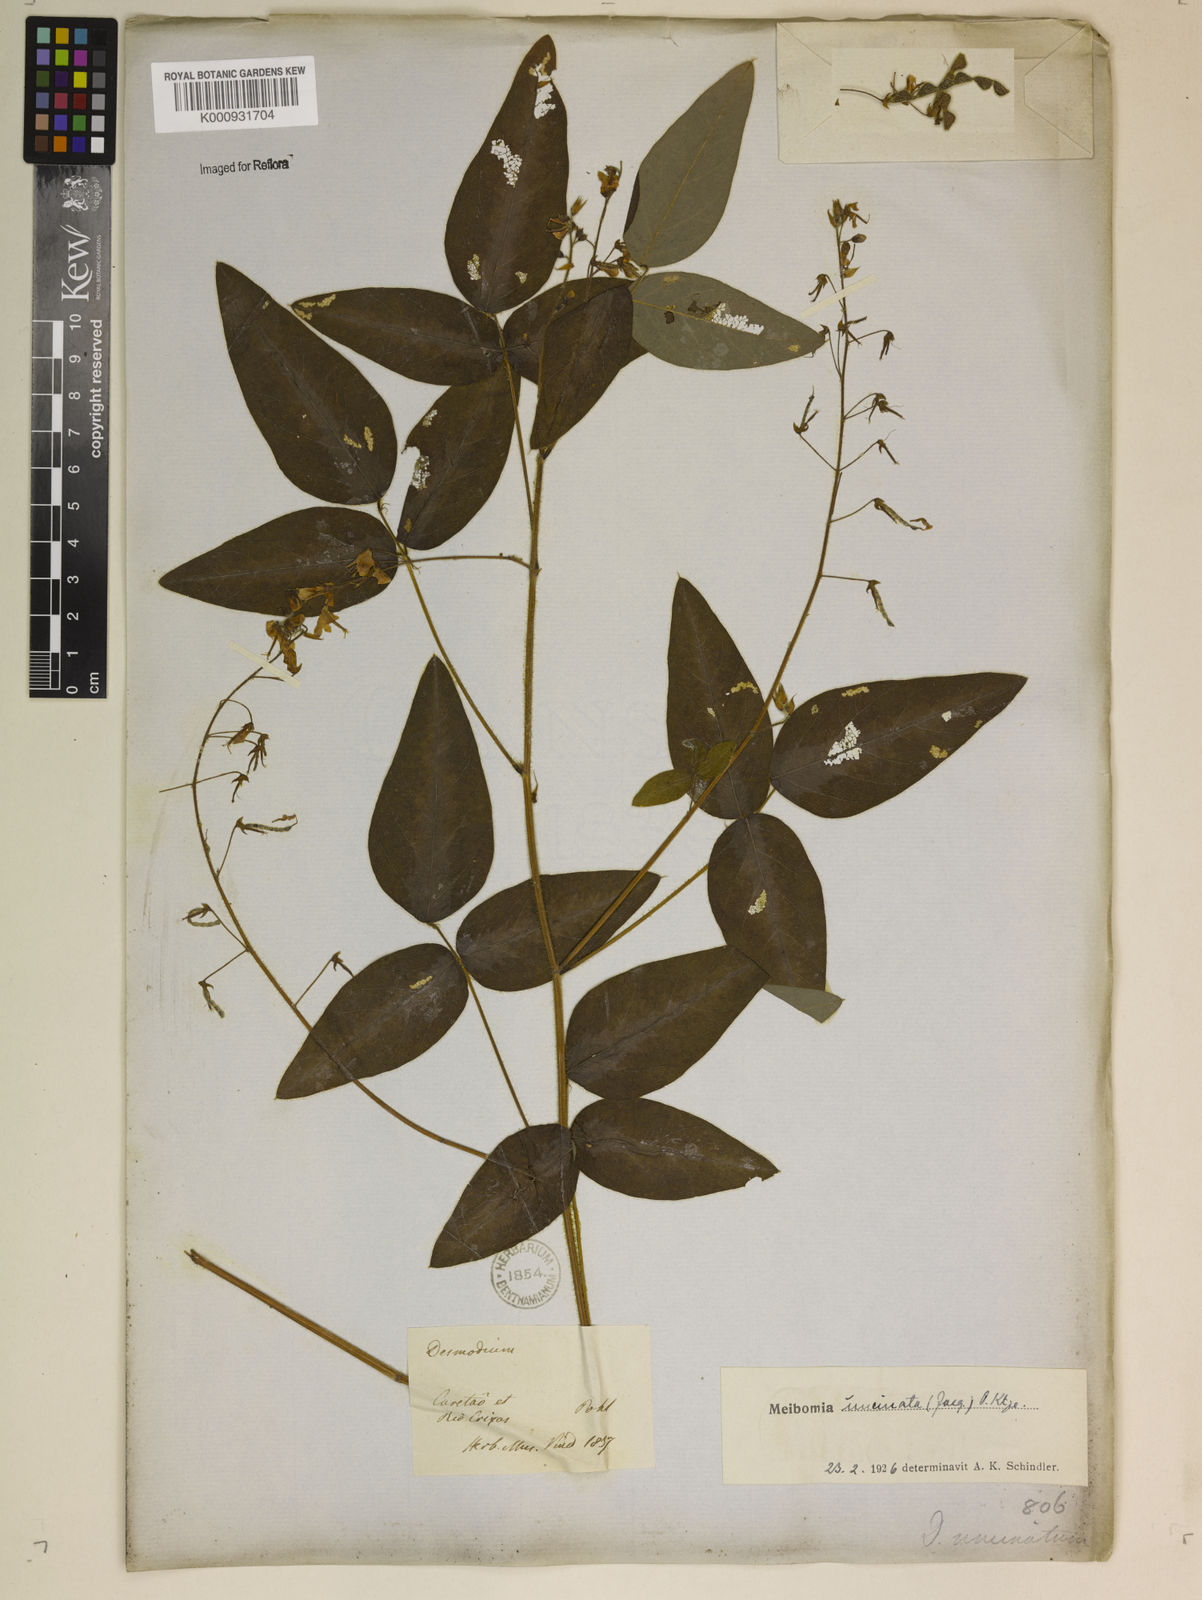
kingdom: Plantae
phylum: Tracheophyta
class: Magnoliopsida
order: Fabales
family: Fabaceae
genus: Desmodium
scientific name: Desmodium uncinatum
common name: Silverleaf desmodium
